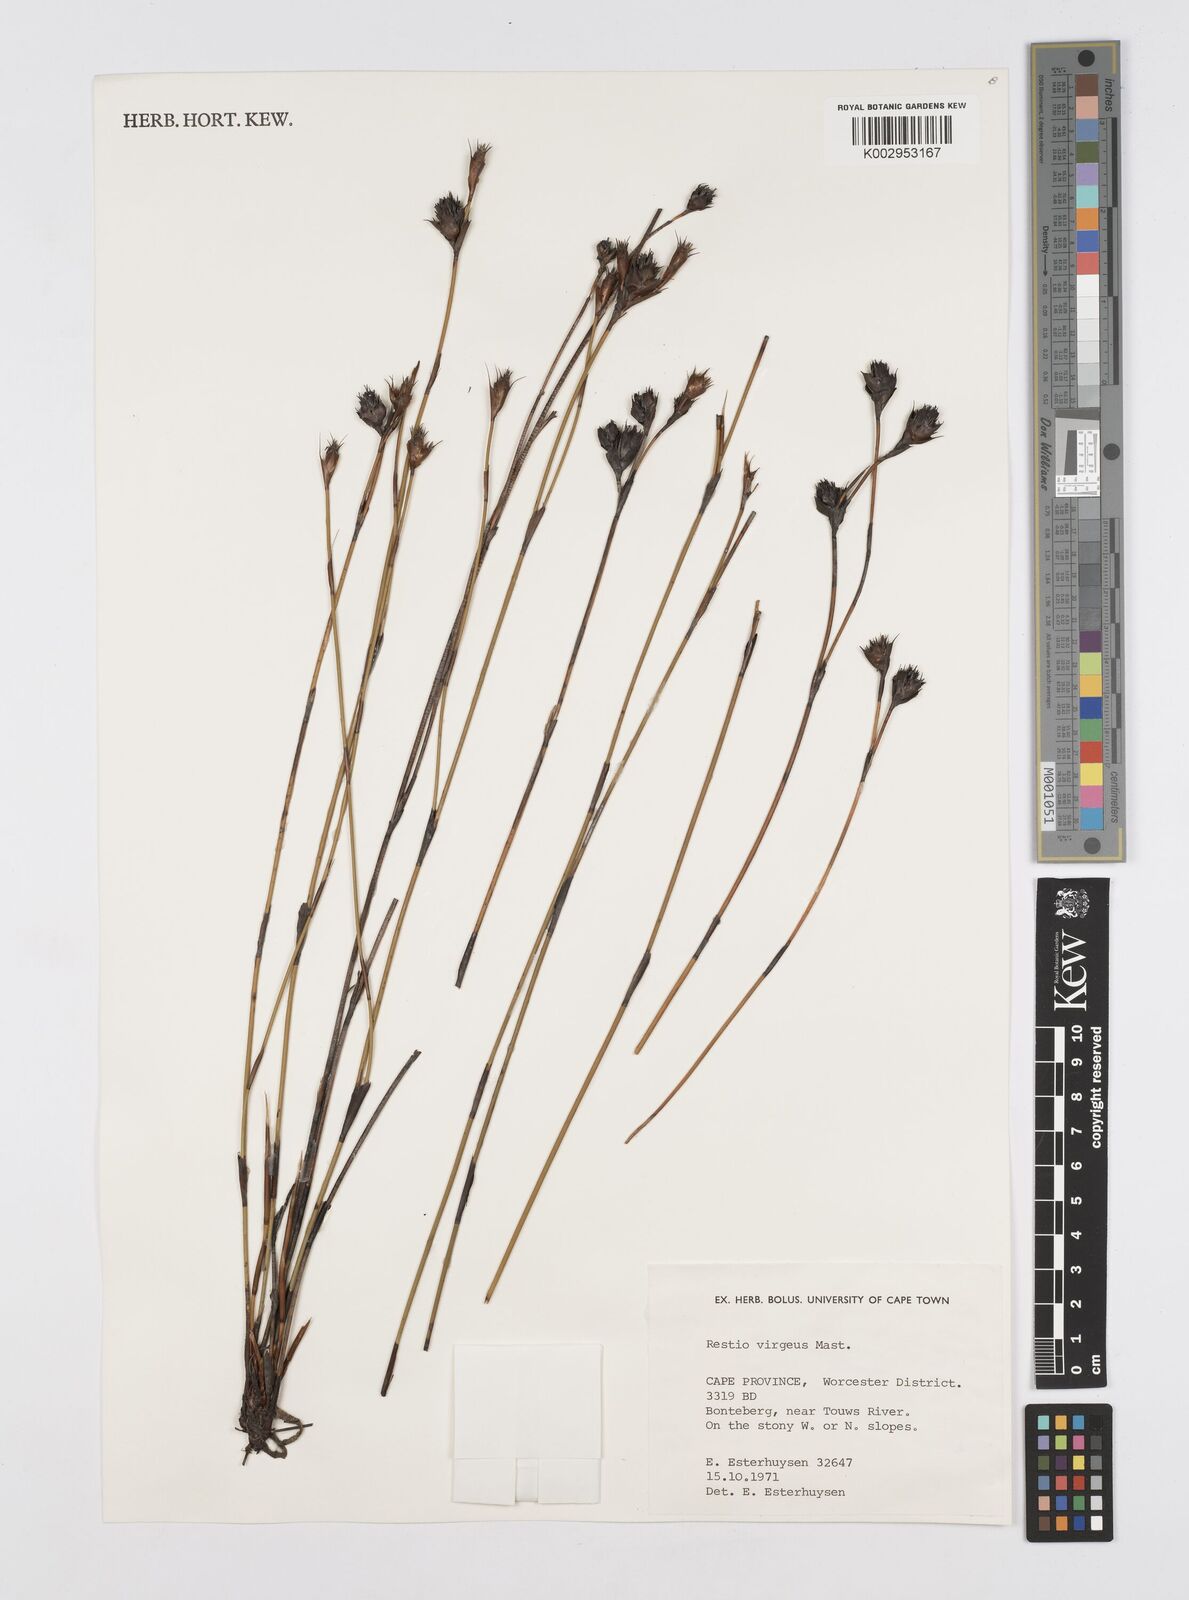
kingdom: Plantae
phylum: Tracheophyta
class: Liliopsida
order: Poales
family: Restionaceae
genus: Restio
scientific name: Restio virgeus
